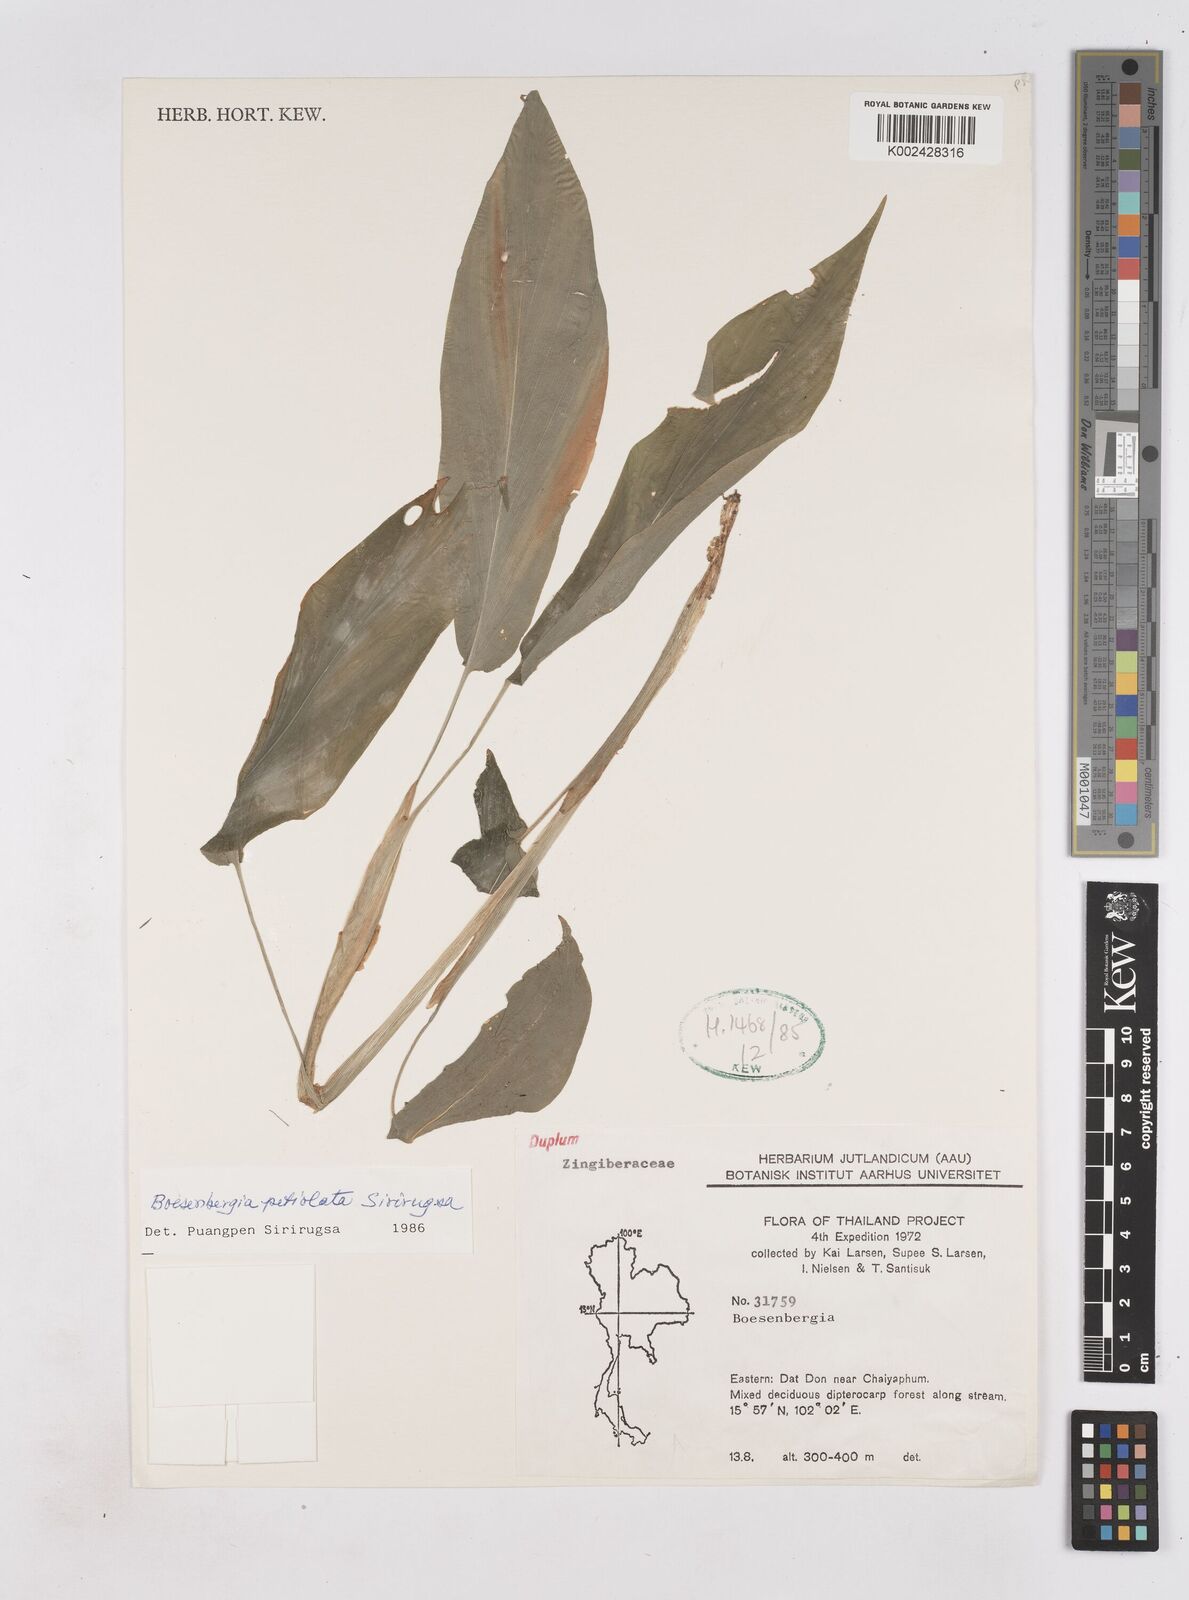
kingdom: Plantae
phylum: Tracheophyta
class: Liliopsida
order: Zingiberales
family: Zingiberaceae
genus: Boesenbergia
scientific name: Boesenbergia petiolata
